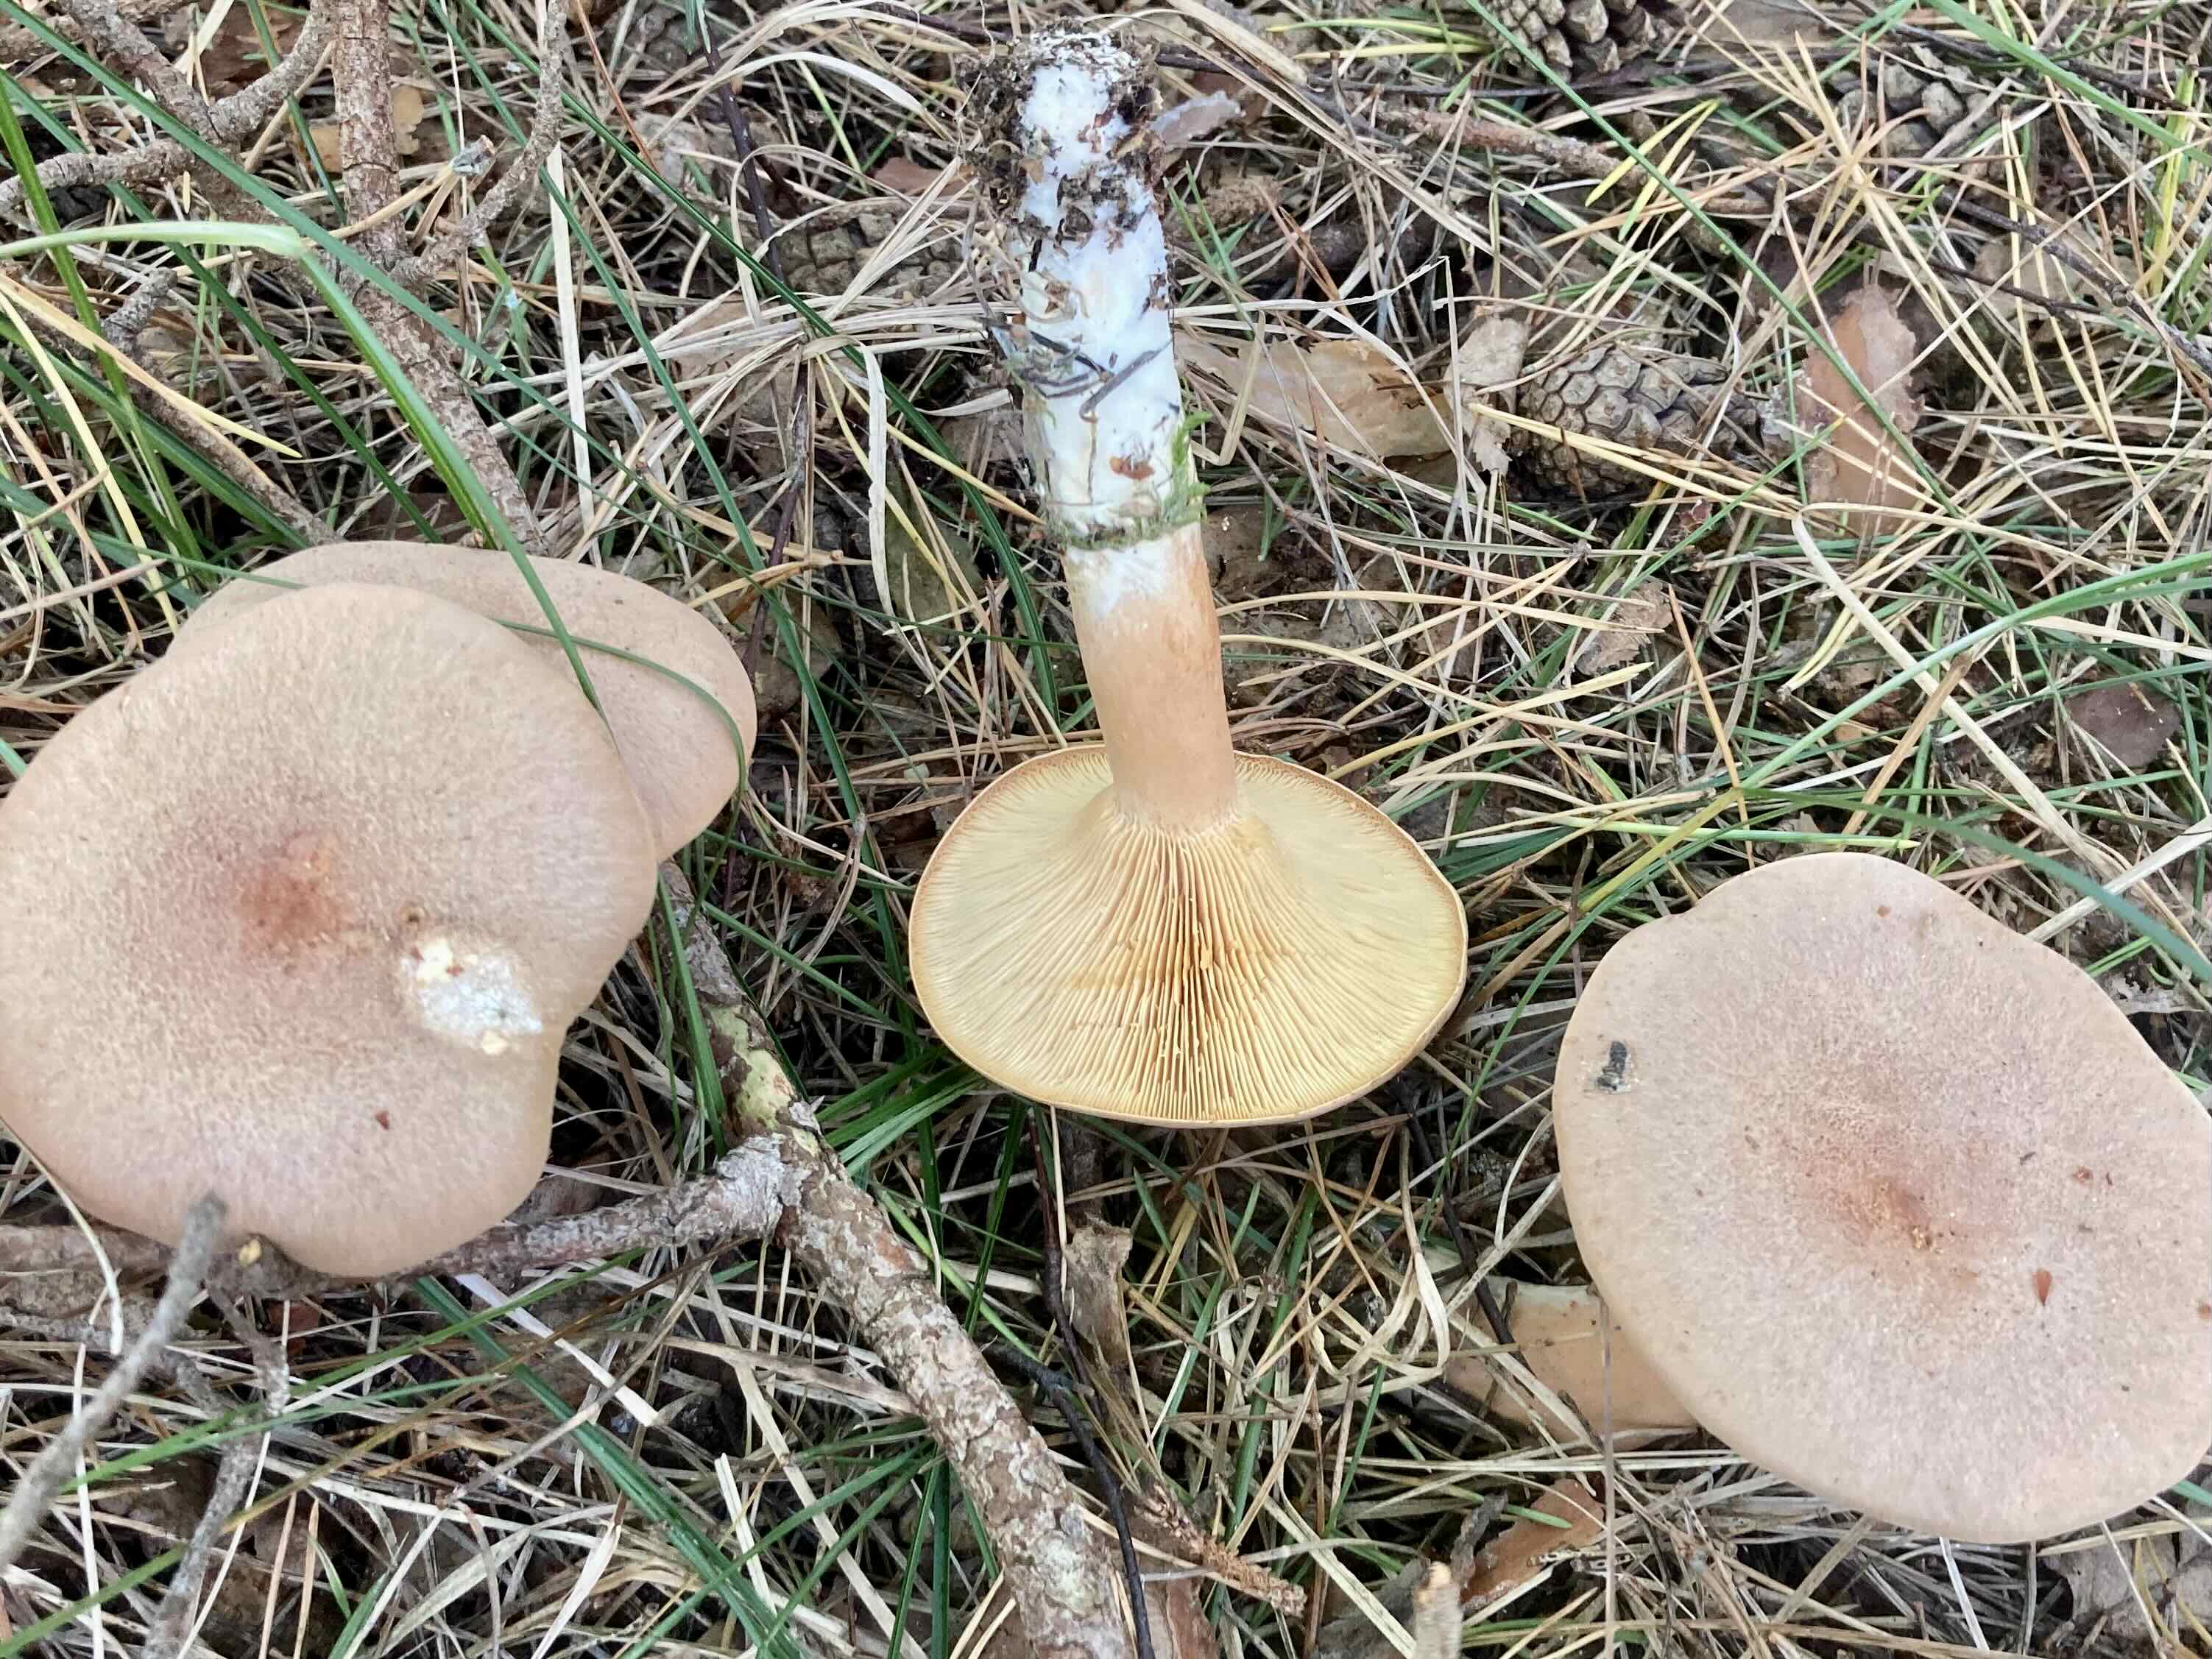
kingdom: Fungi
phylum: Basidiomycota
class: Agaricomycetes
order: Russulales
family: Russulaceae
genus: Lactarius
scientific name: Lactarius helvus
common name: mose-mælkehat
